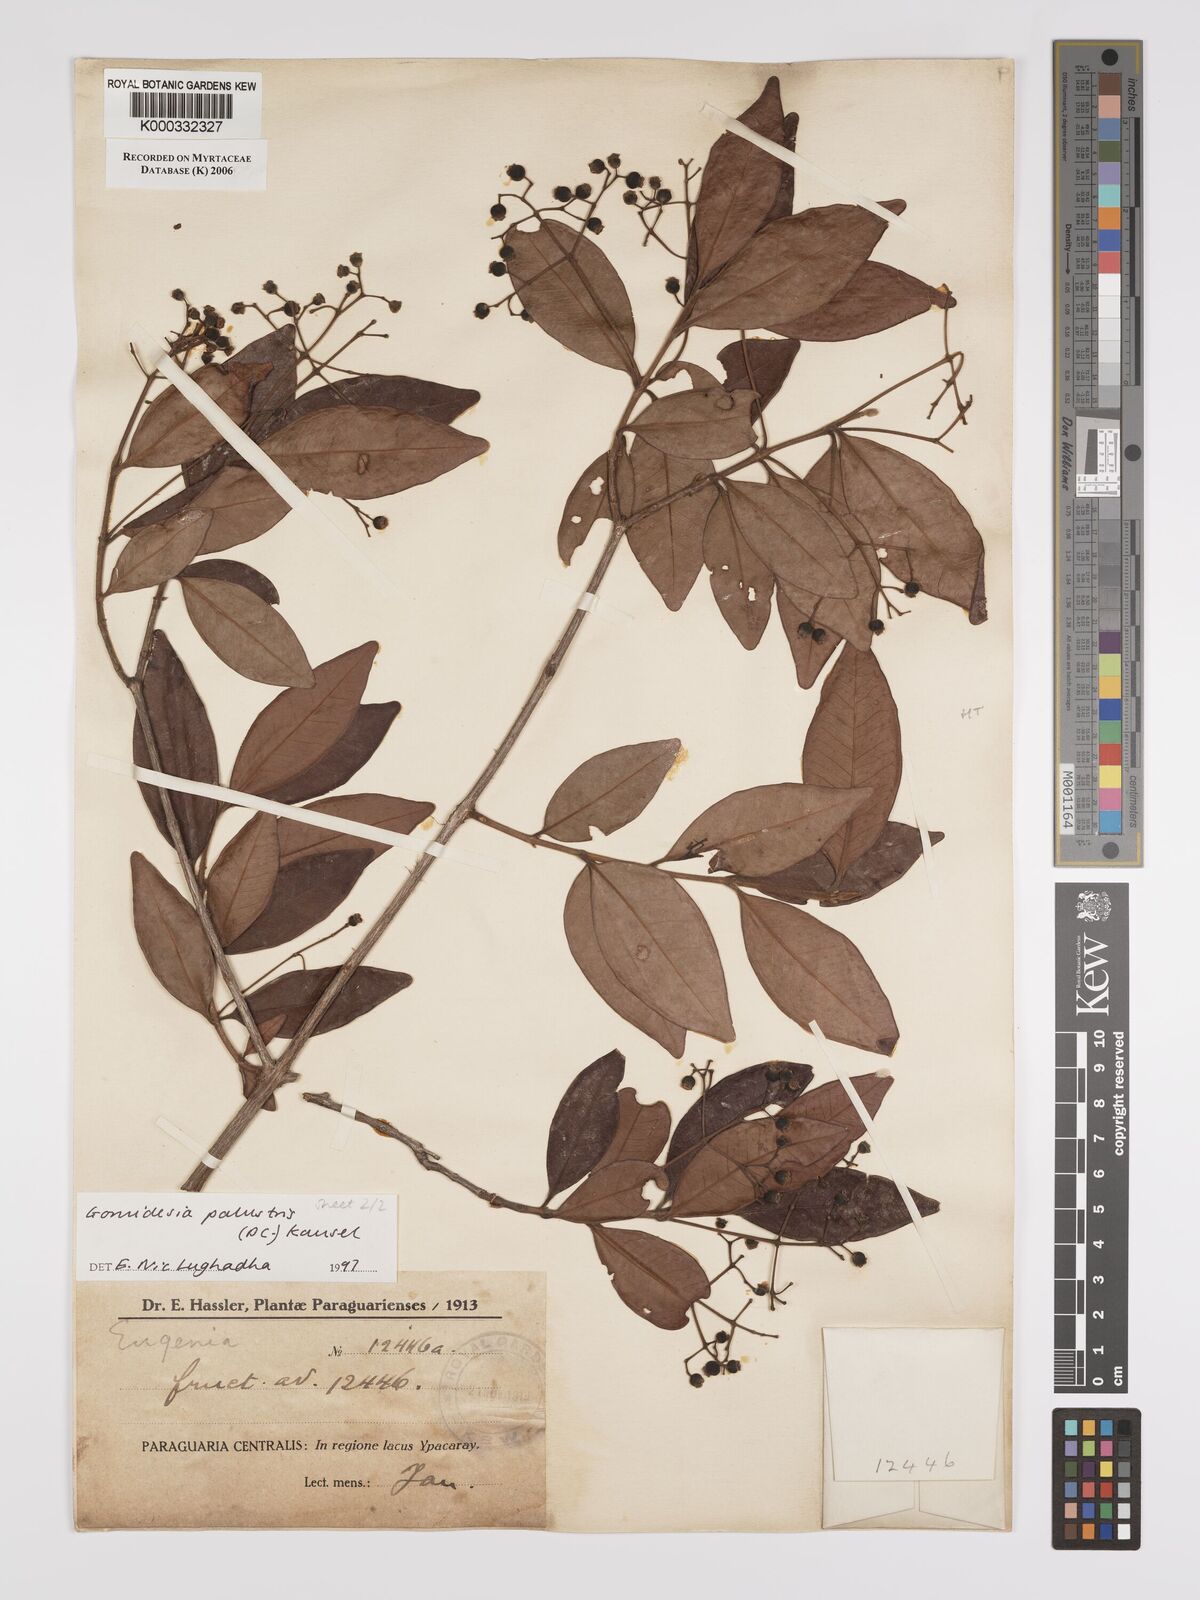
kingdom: Plantae
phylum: Tracheophyta
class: Magnoliopsida
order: Myrtales
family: Myrtaceae
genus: Myrcia
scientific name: Myrcia palustris
